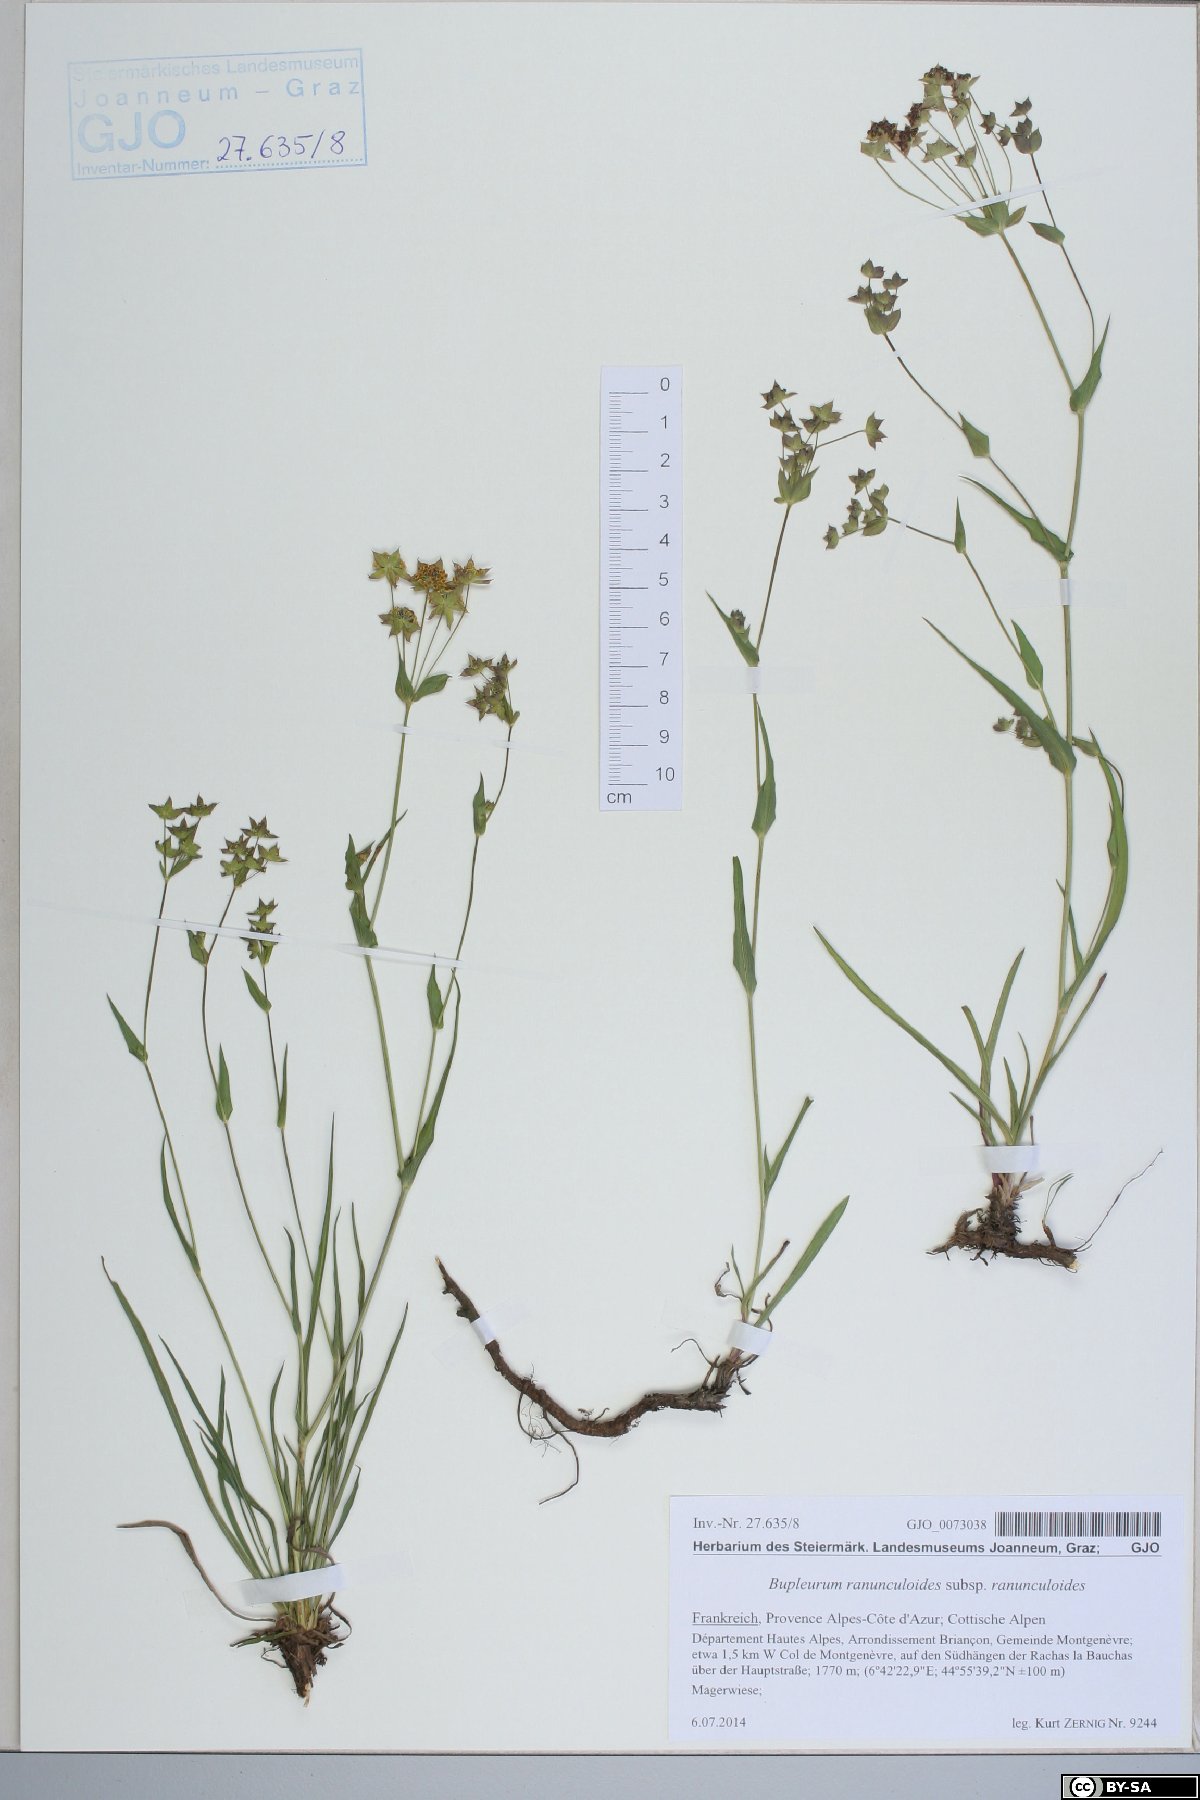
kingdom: Plantae
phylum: Tracheophyta
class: Magnoliopsida
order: Apiales
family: Apiaceae
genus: Bupleurum
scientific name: Bupleurum ranunculoides
